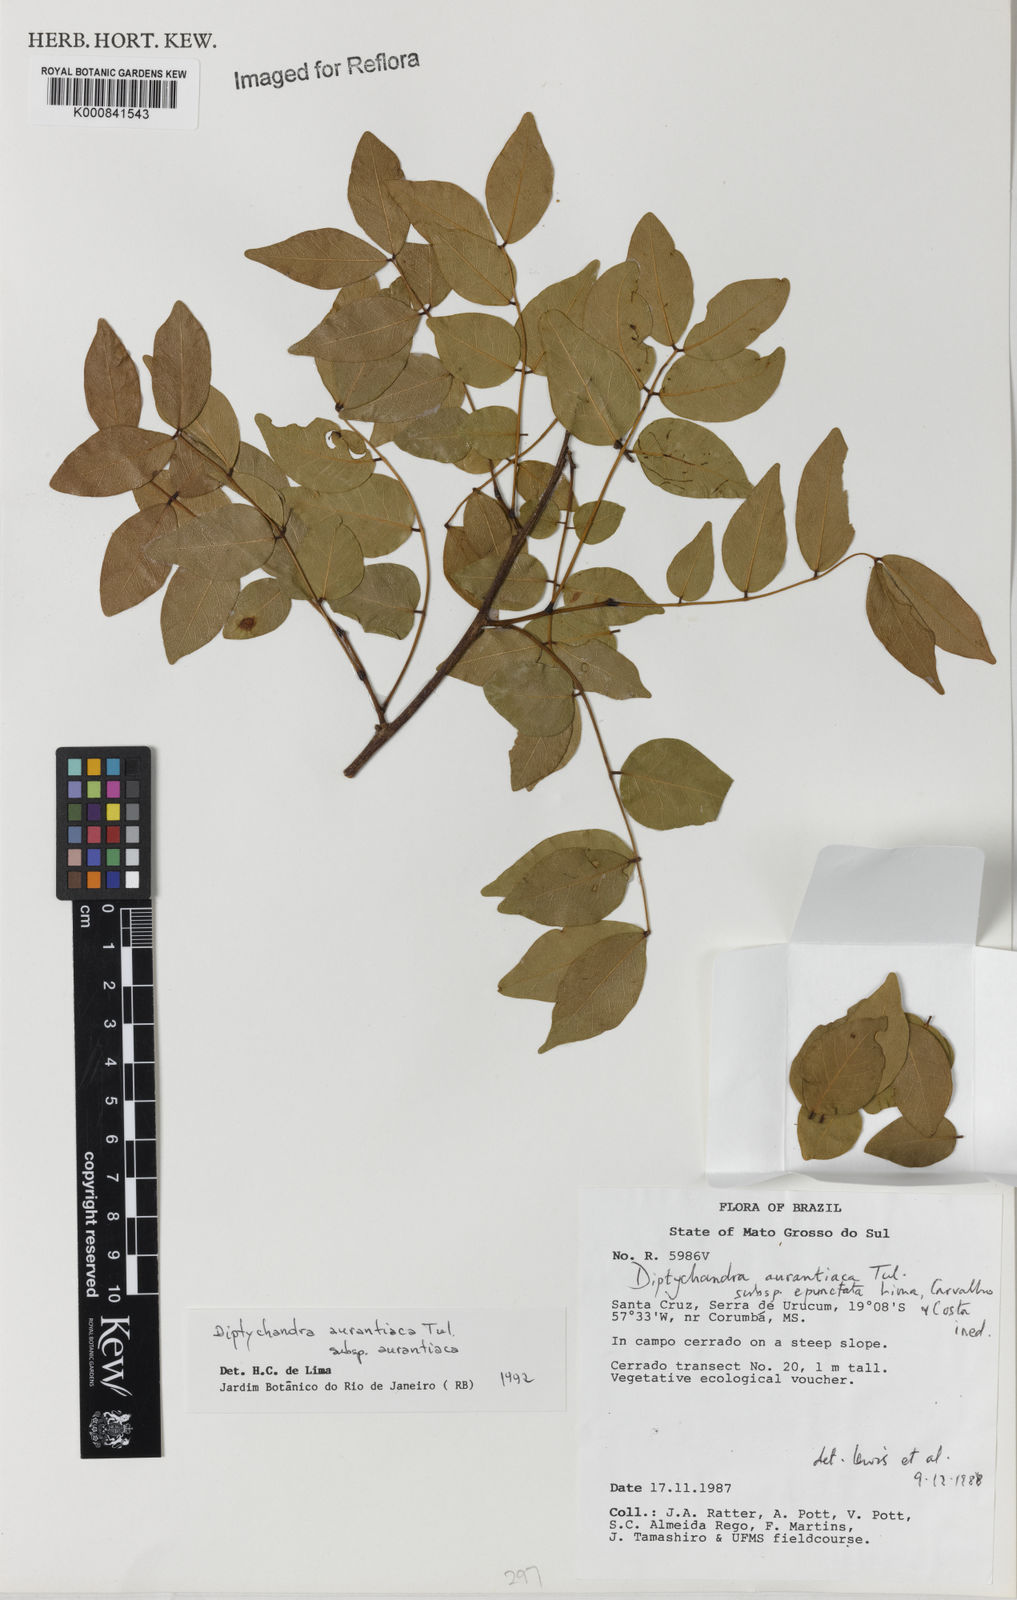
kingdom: Plantae
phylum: Tracheophyta
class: Magnoliopsida
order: Fabales
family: Fabaceae
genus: Diptychandra
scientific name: Diptychandra aurantiaca
